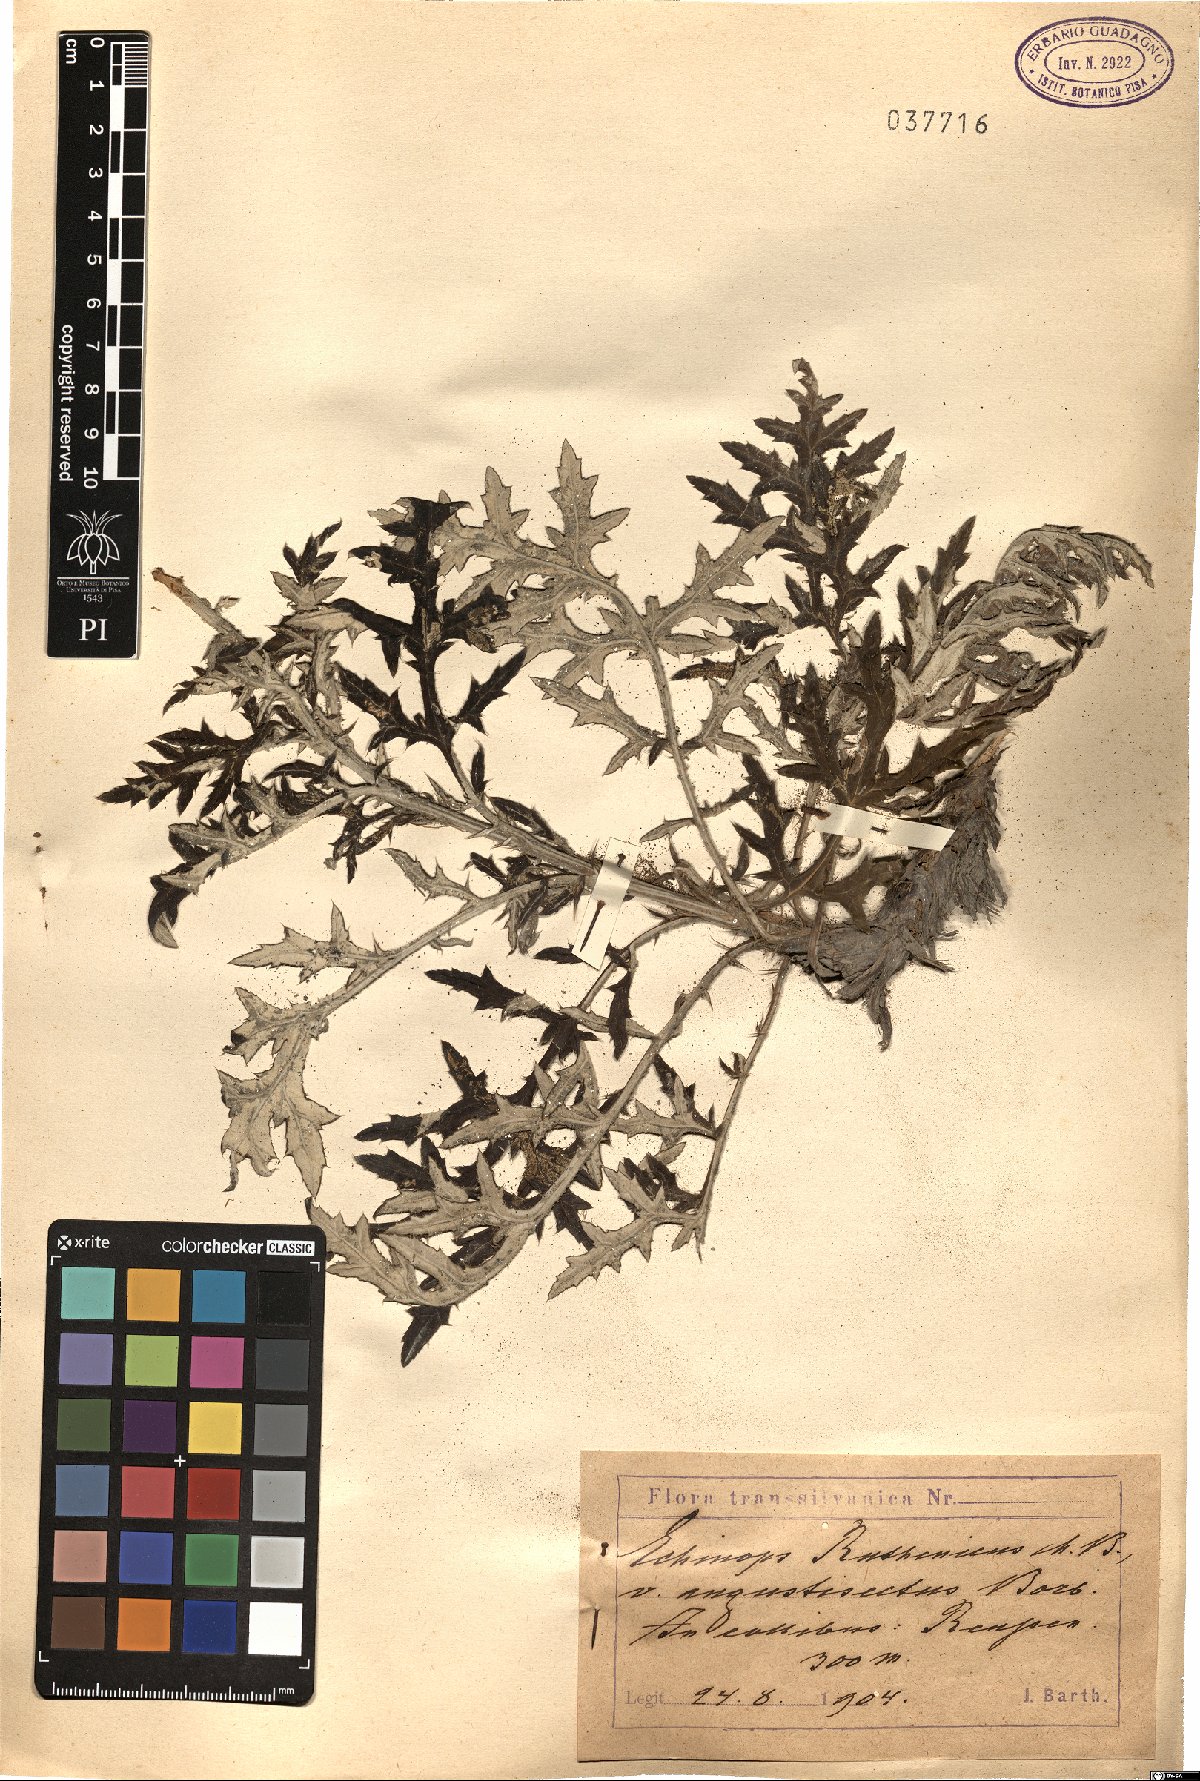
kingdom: Plantae
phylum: Tracheophyta
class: Magnoliopsida
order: Asterales
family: Asteraceae
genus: Echinops
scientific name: Echinops ritro
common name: Globe thistle
